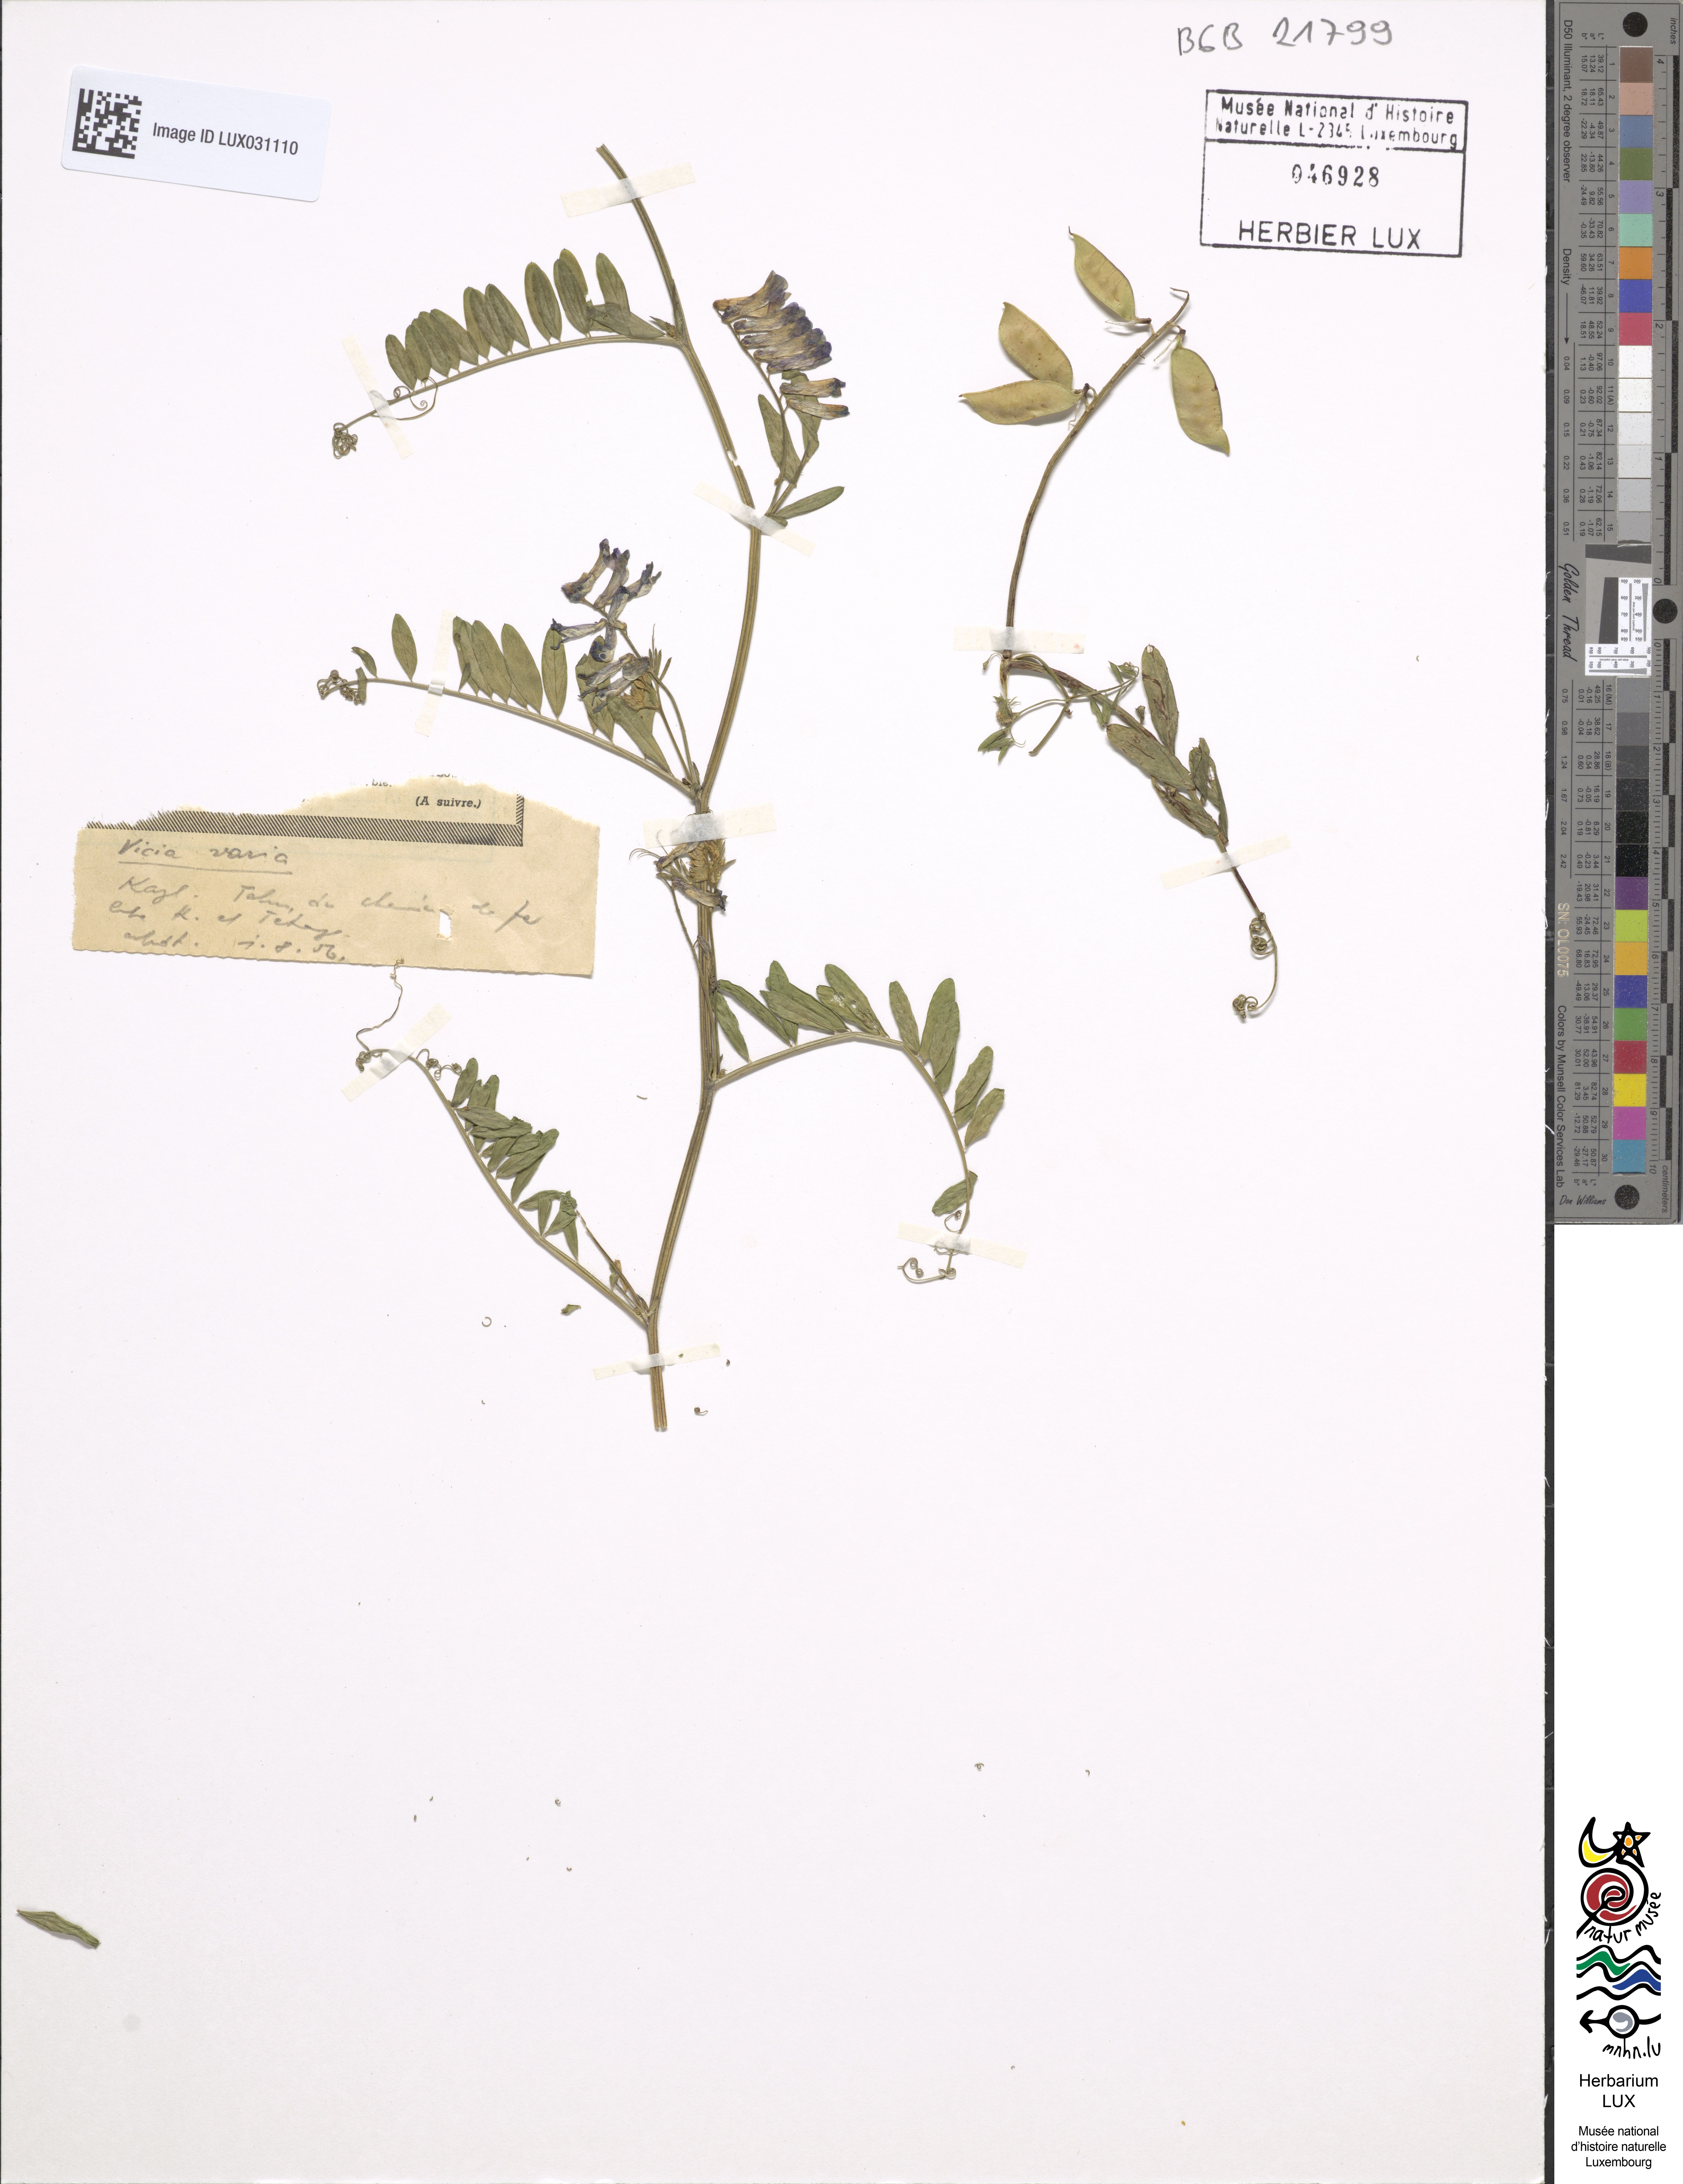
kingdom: Plantae
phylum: Tracheophyta
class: Magnoliopsida
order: Fabales
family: Fabaceae
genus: Vicia
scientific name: Vicia villosa
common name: Fodder vetch
